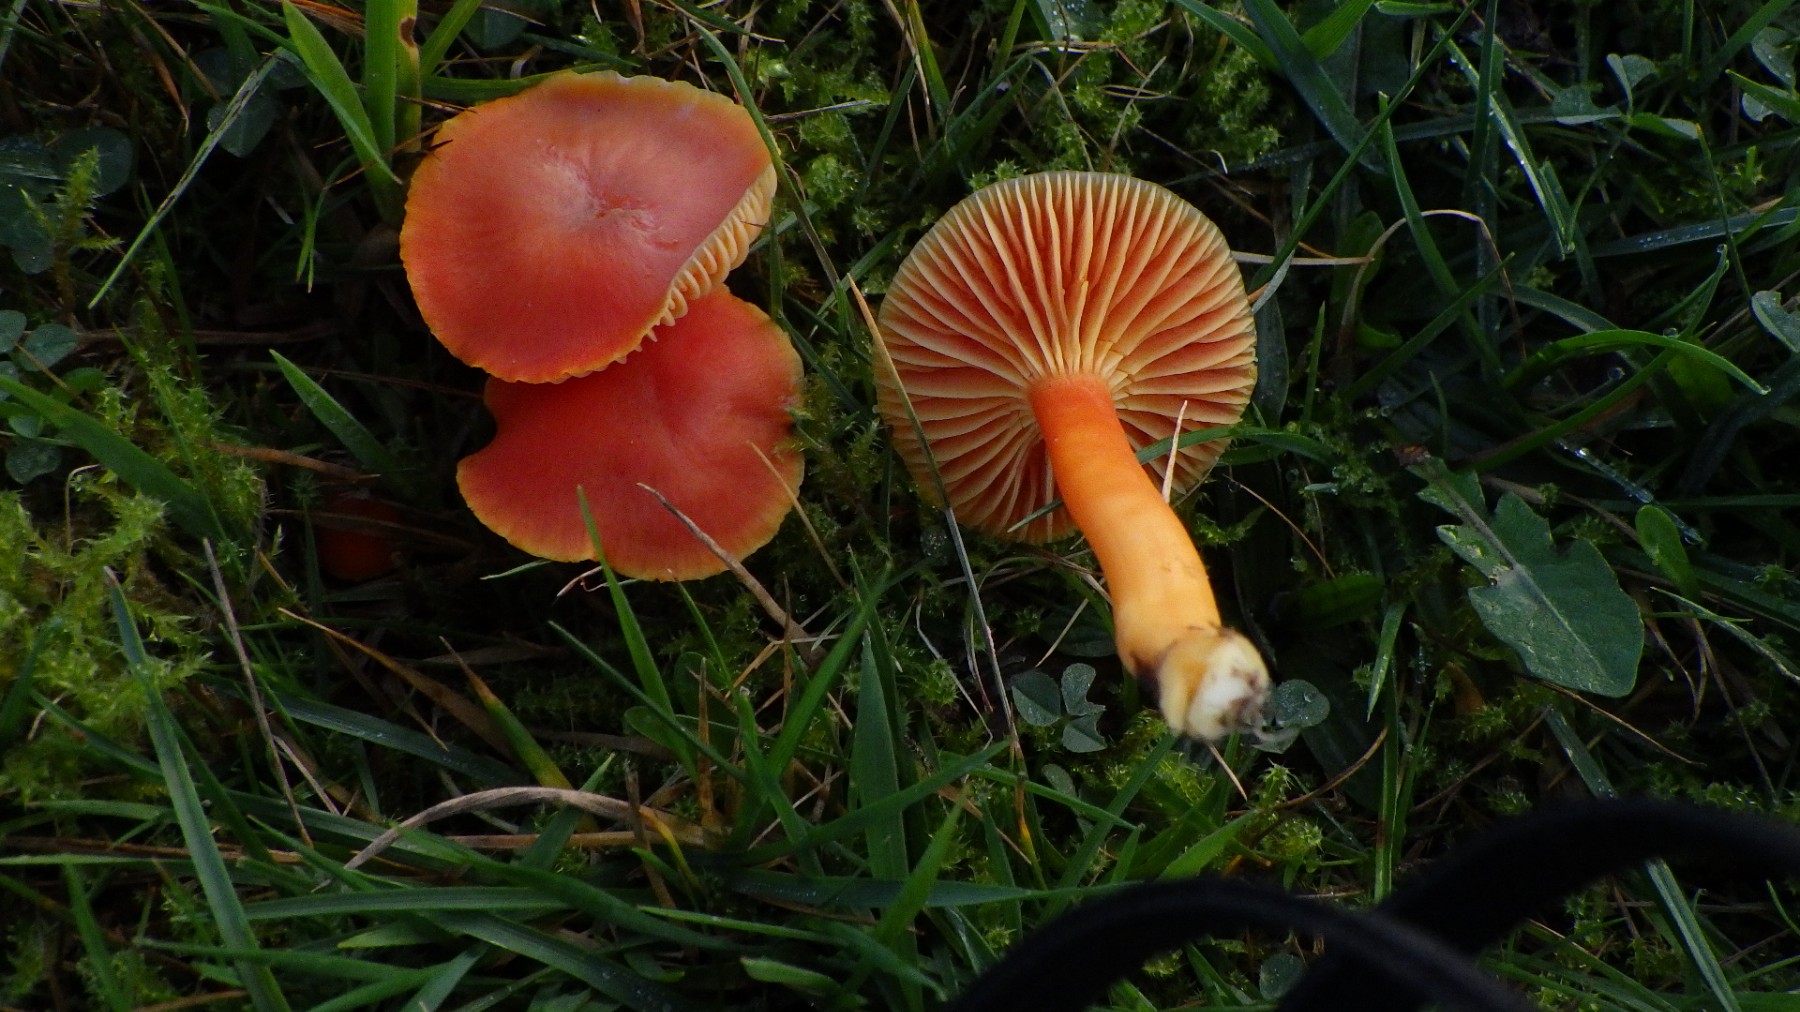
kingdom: Fungi
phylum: Basidiomycota
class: Agaricomycetes
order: Agaricales
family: Hygrophoraceae
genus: Hygrocybe
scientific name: Hygrocybe reidii
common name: honning-vokshat
